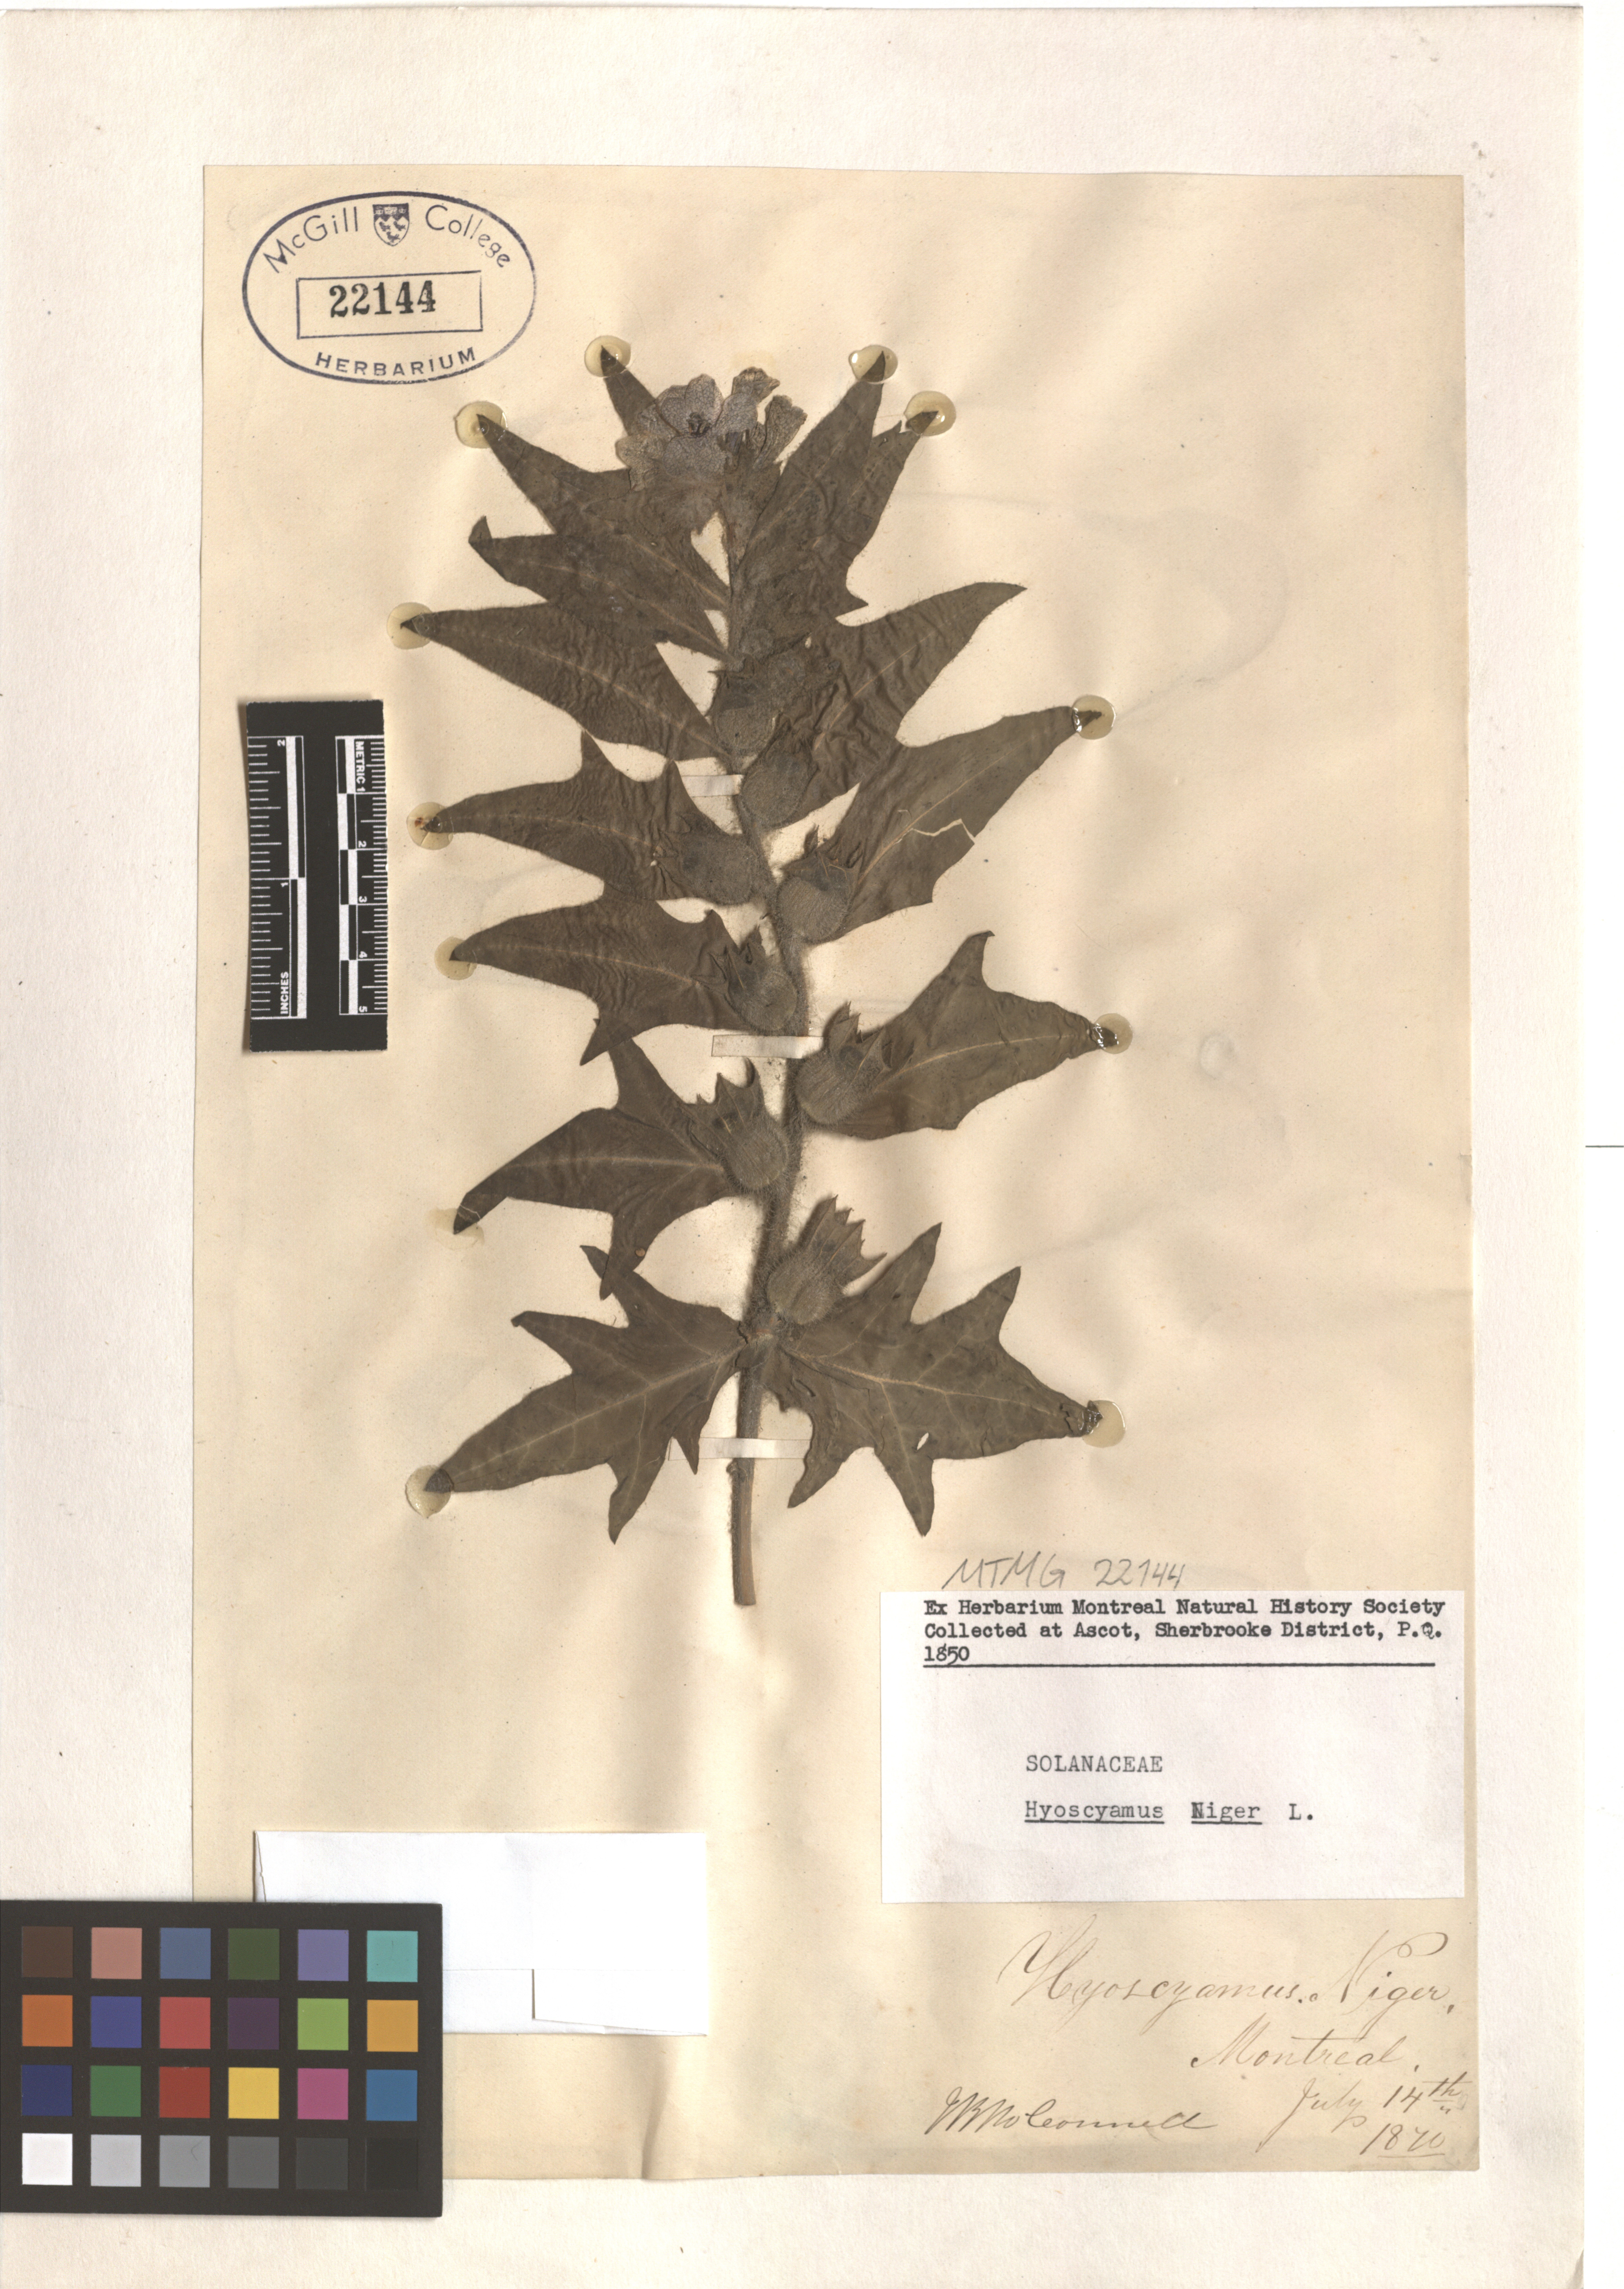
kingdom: Plantae
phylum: Tracheophyta
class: Magnoliopsida
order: Solanales
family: Solanaceae
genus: Hyoscyamus
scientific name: Hyoscyamus niger
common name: Henbane
